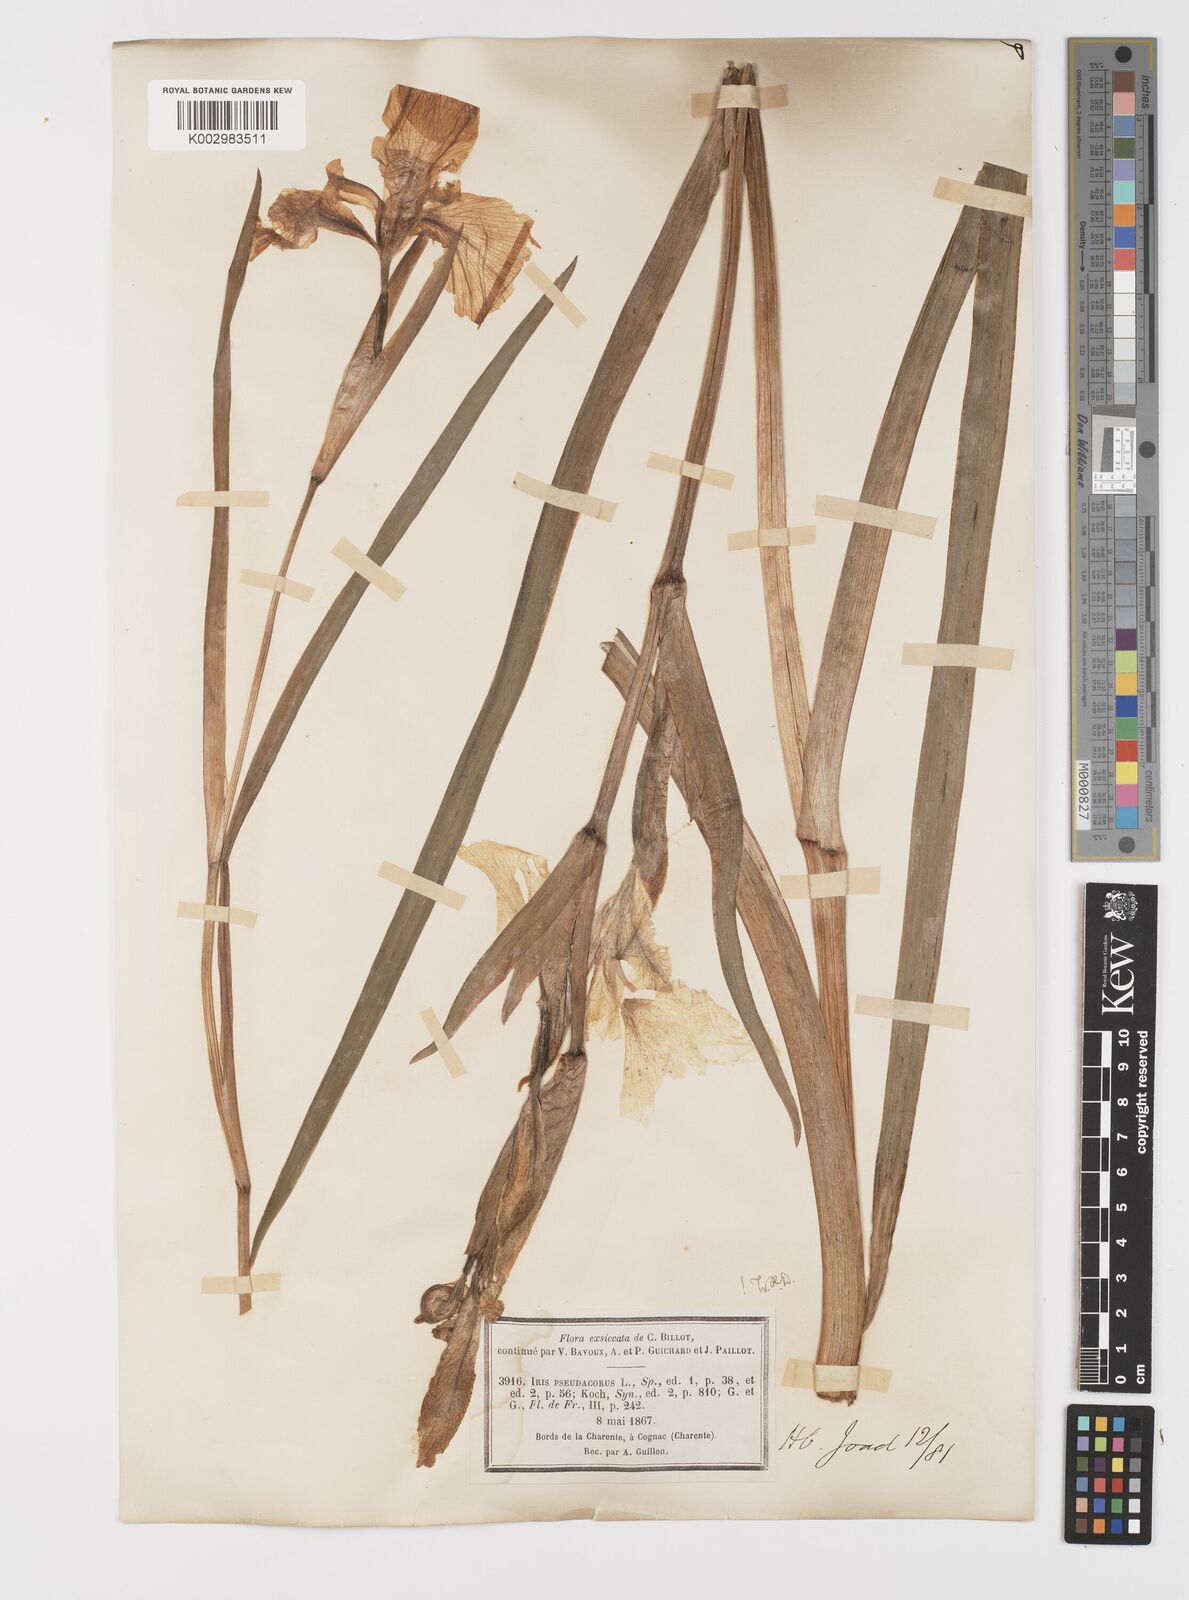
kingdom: Plantae
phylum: Tracheophyta
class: Liliopsida
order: Asparagales
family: Iridaceae
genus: Iris
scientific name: Iris pseudacorus
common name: Yellow flag
